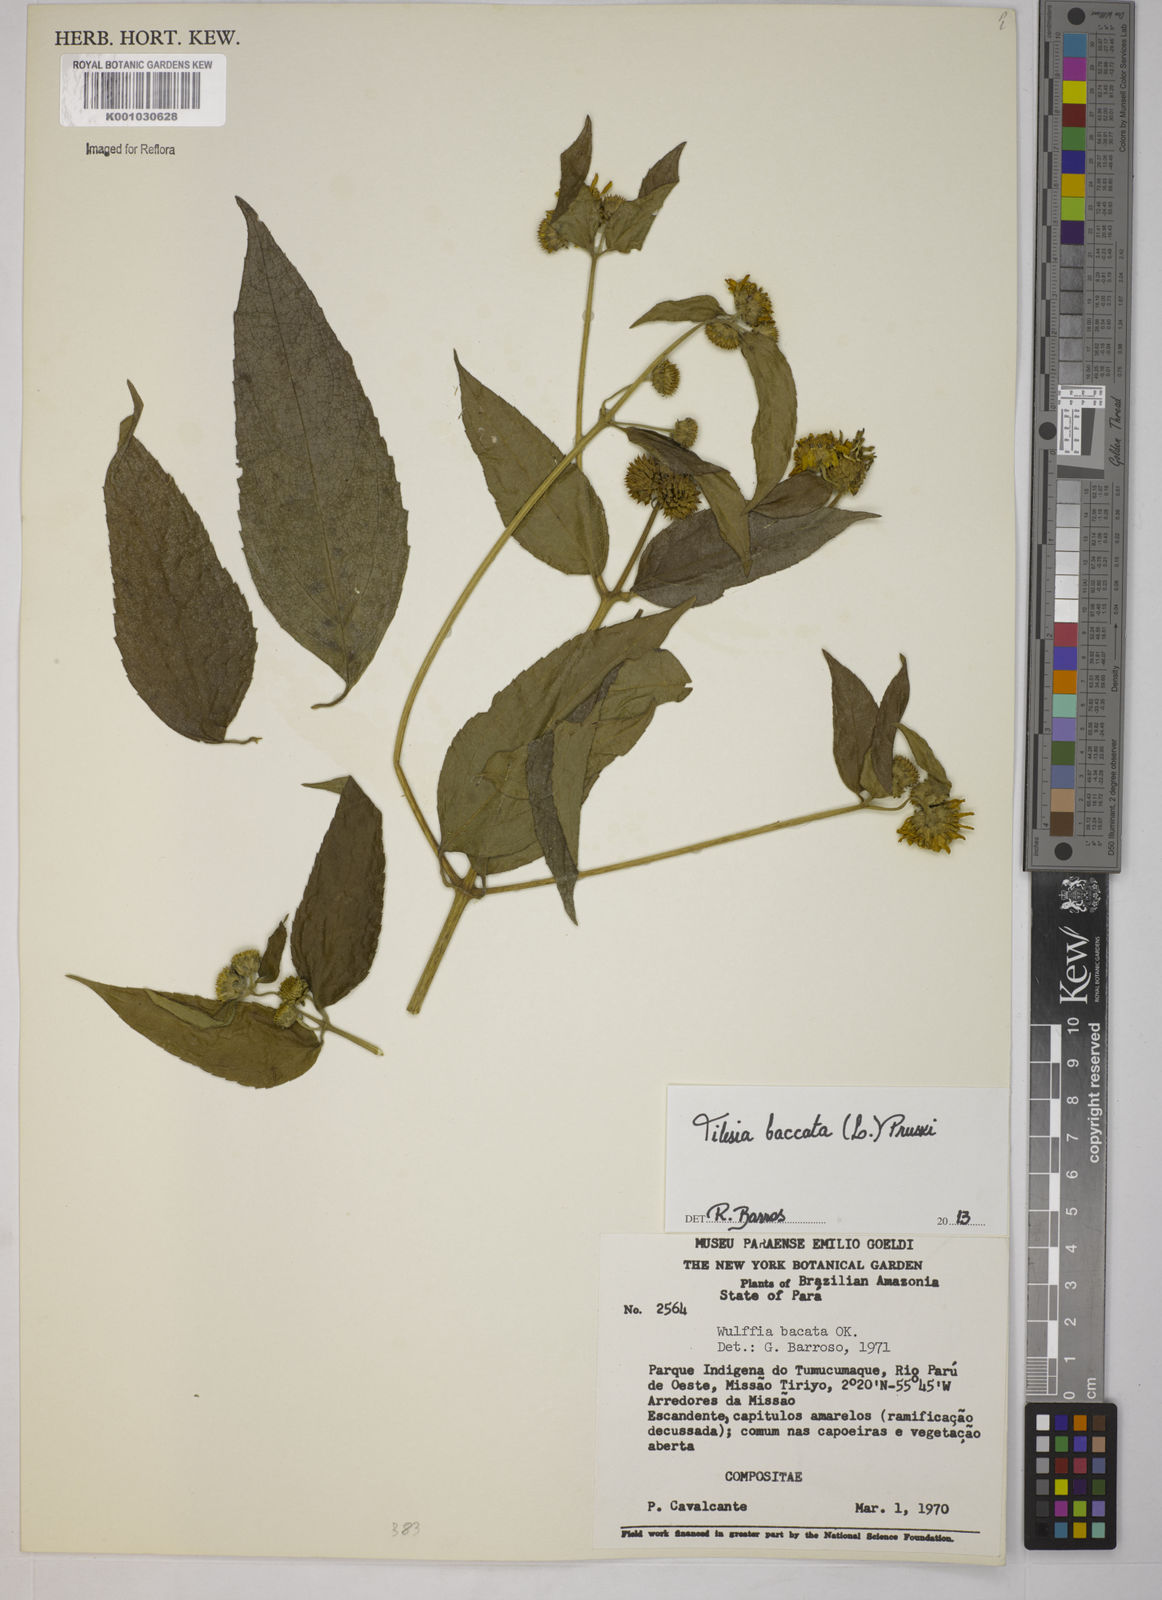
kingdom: Plantae
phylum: Tracheophyta
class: Magnoliopsida
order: Asterales
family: Asteraceae
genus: Tilesia
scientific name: Tilesia baccata
